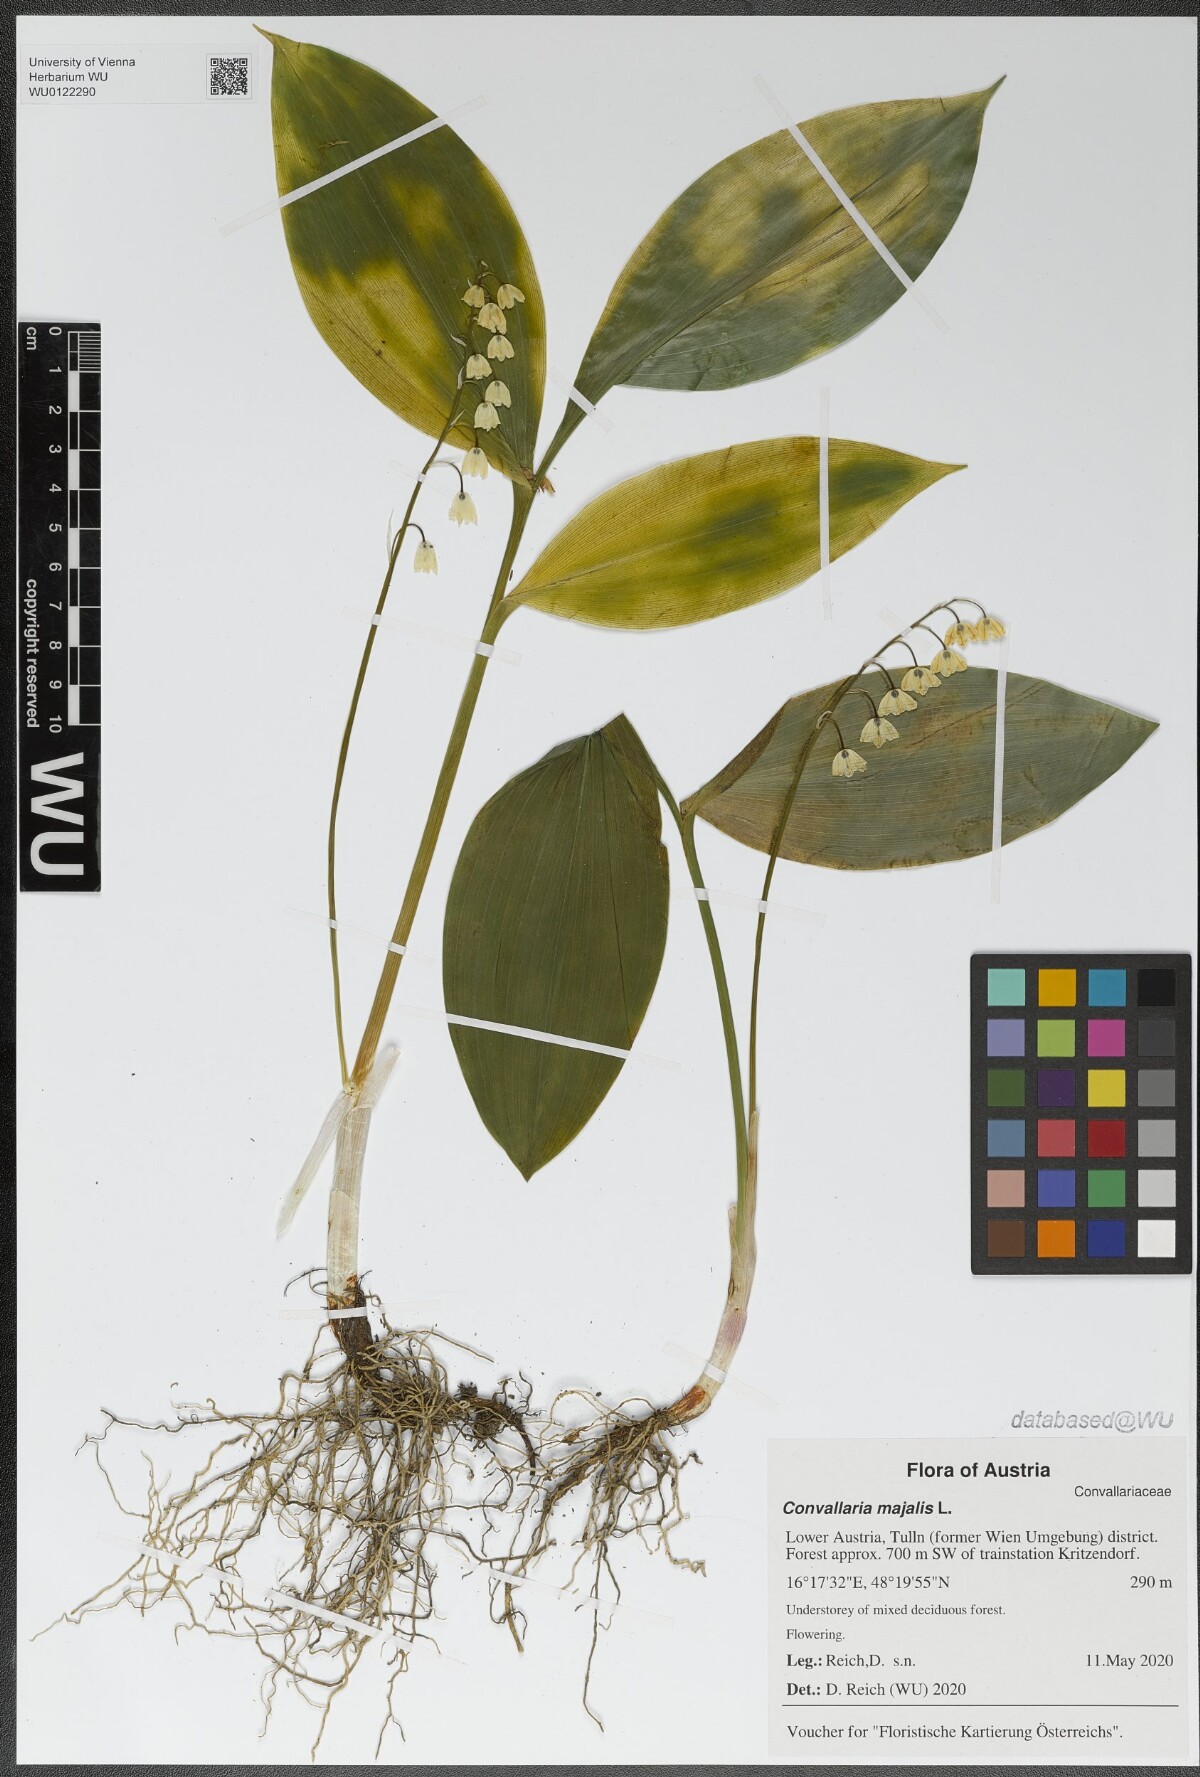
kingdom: Plantae
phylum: Tracheophyta
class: Liliopsida
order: Asparagales
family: Asparagaceae
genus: Convallaria
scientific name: Convallaria majalis
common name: Lily-of-the-valley
